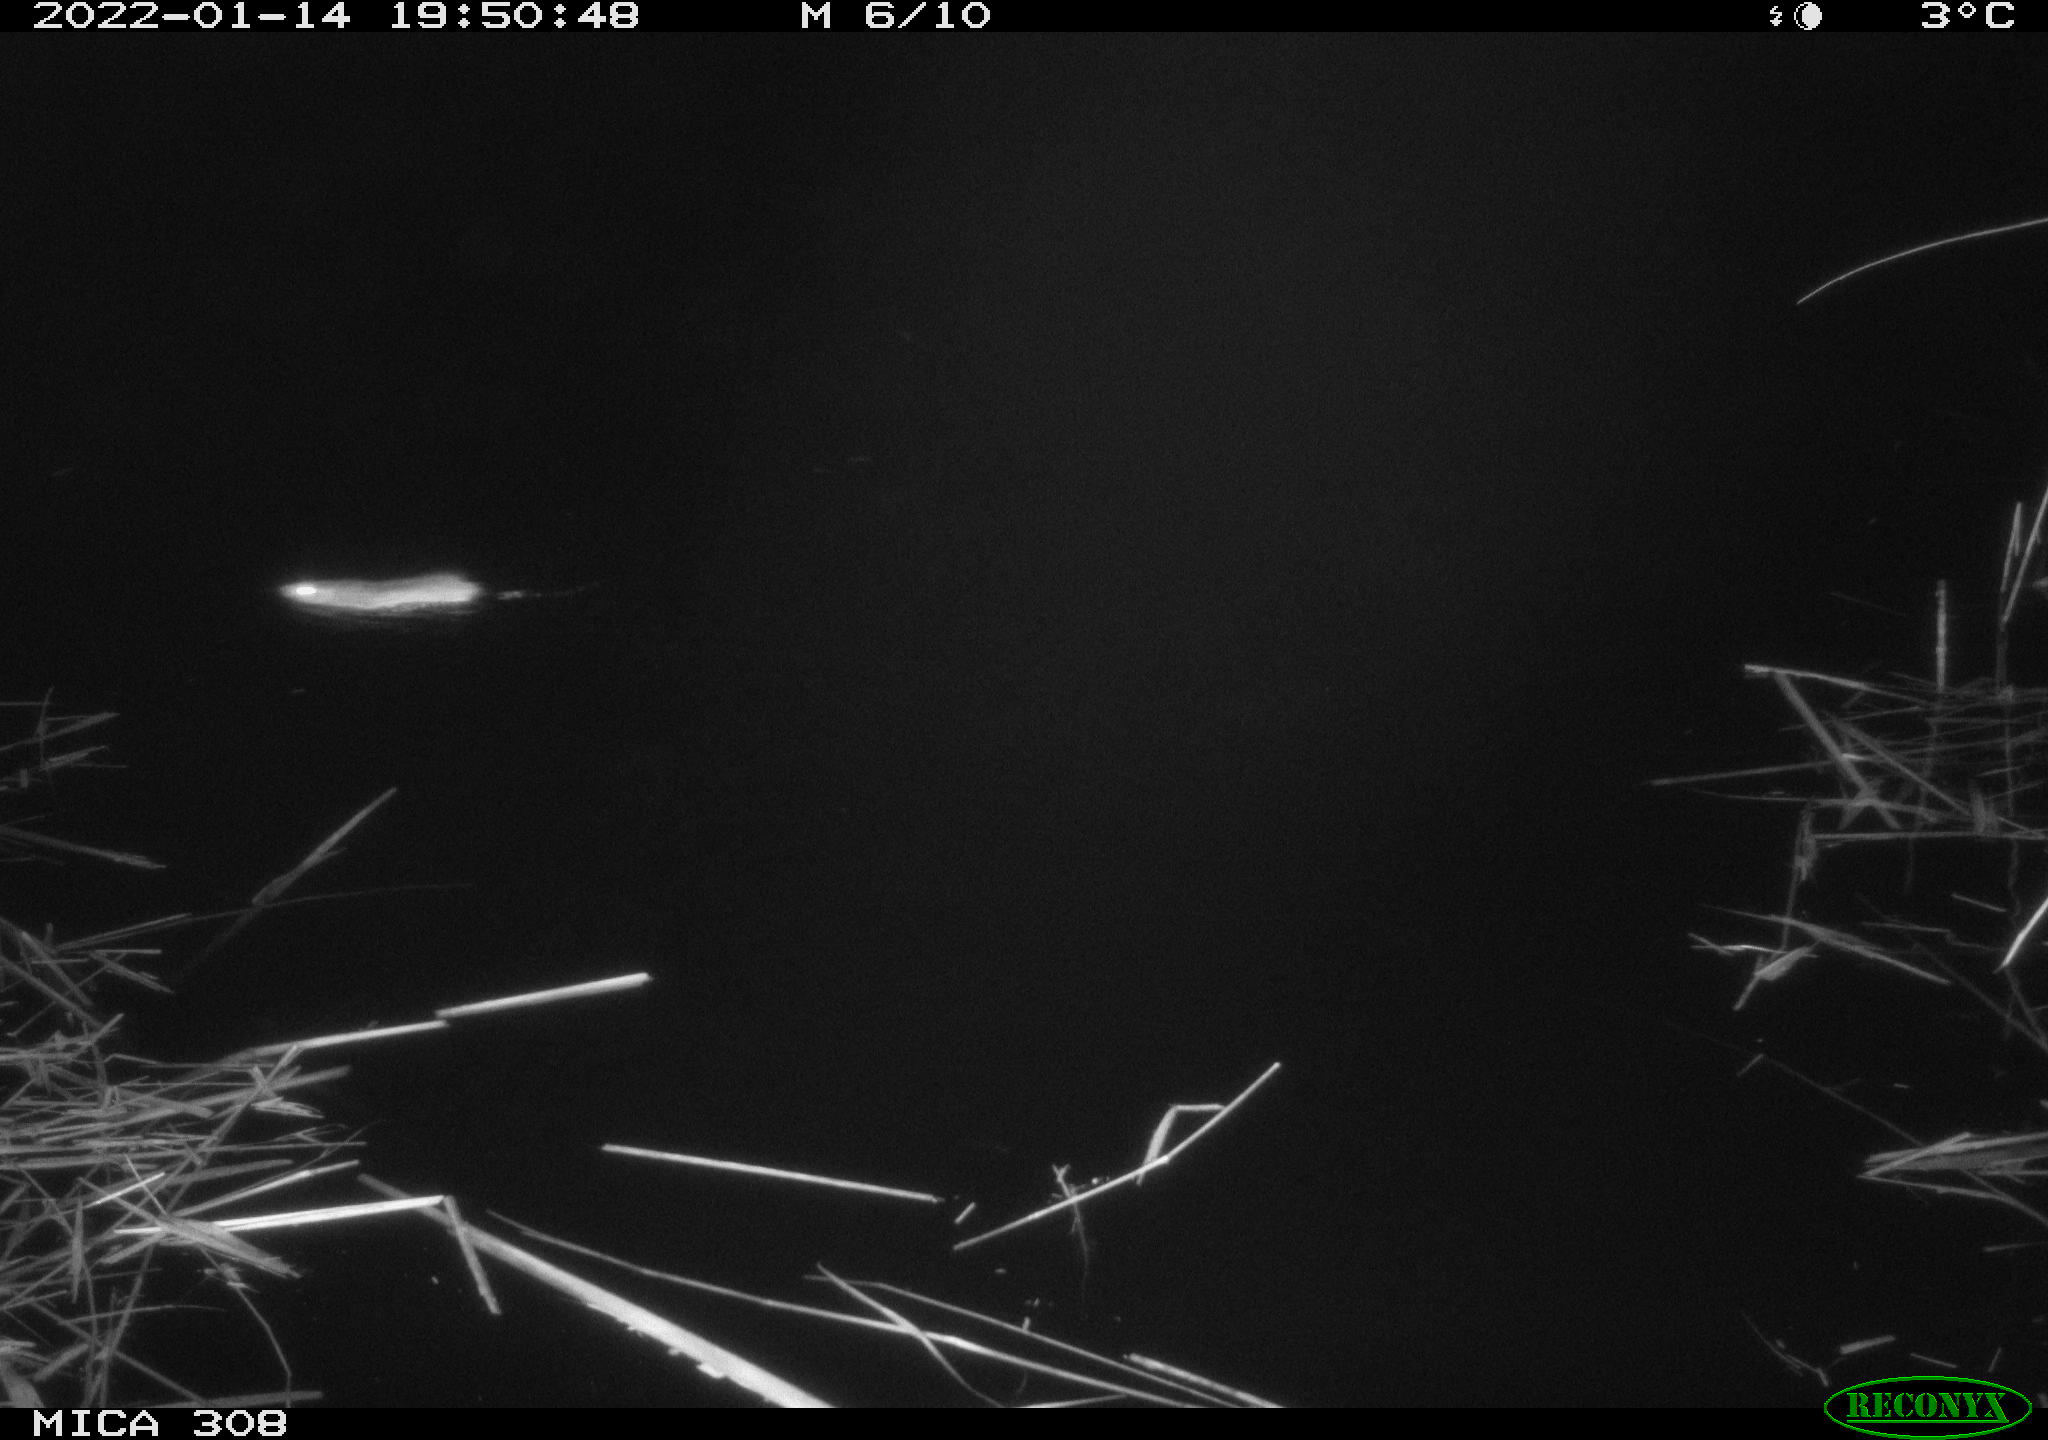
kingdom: Animalia
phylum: Chordata
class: Mammalia
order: Rodentia
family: Muridae
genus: Rattus
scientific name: Rattus norvegicus
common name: Brown rat
